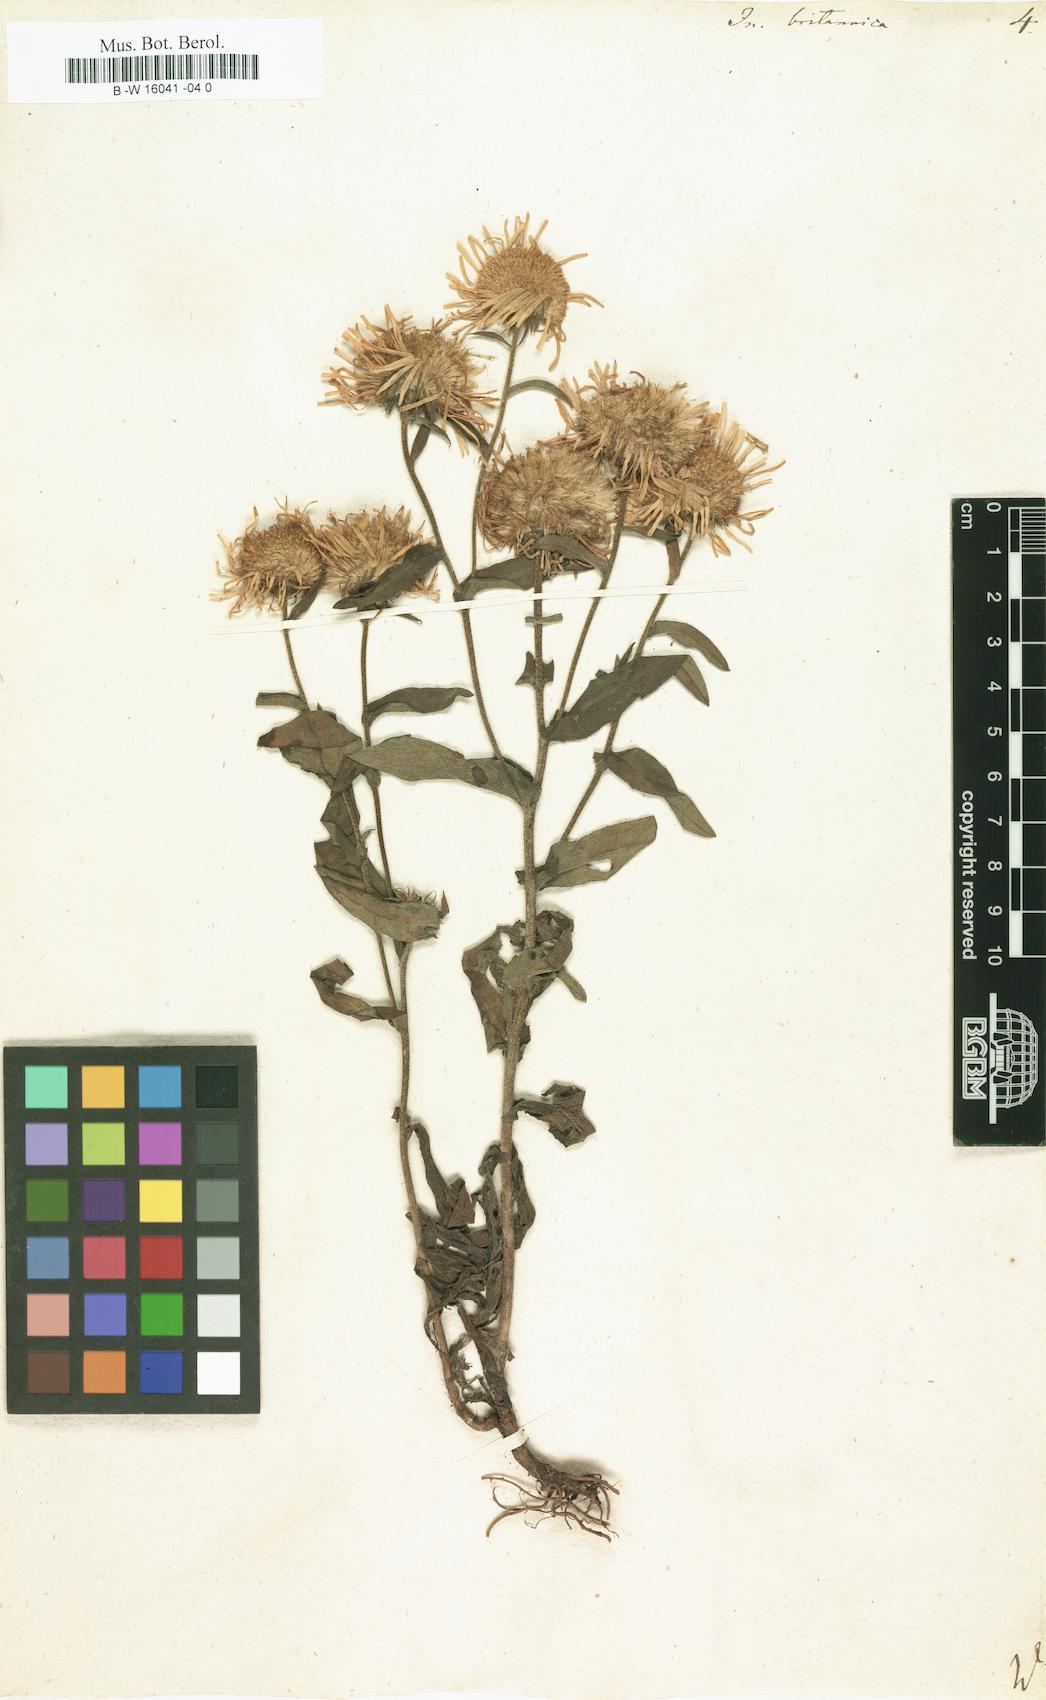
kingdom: Plantae
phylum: Tracheophyta
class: Magnoliopsida
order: Asterales
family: Asteraceae
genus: Inula
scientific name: Inula britannica
